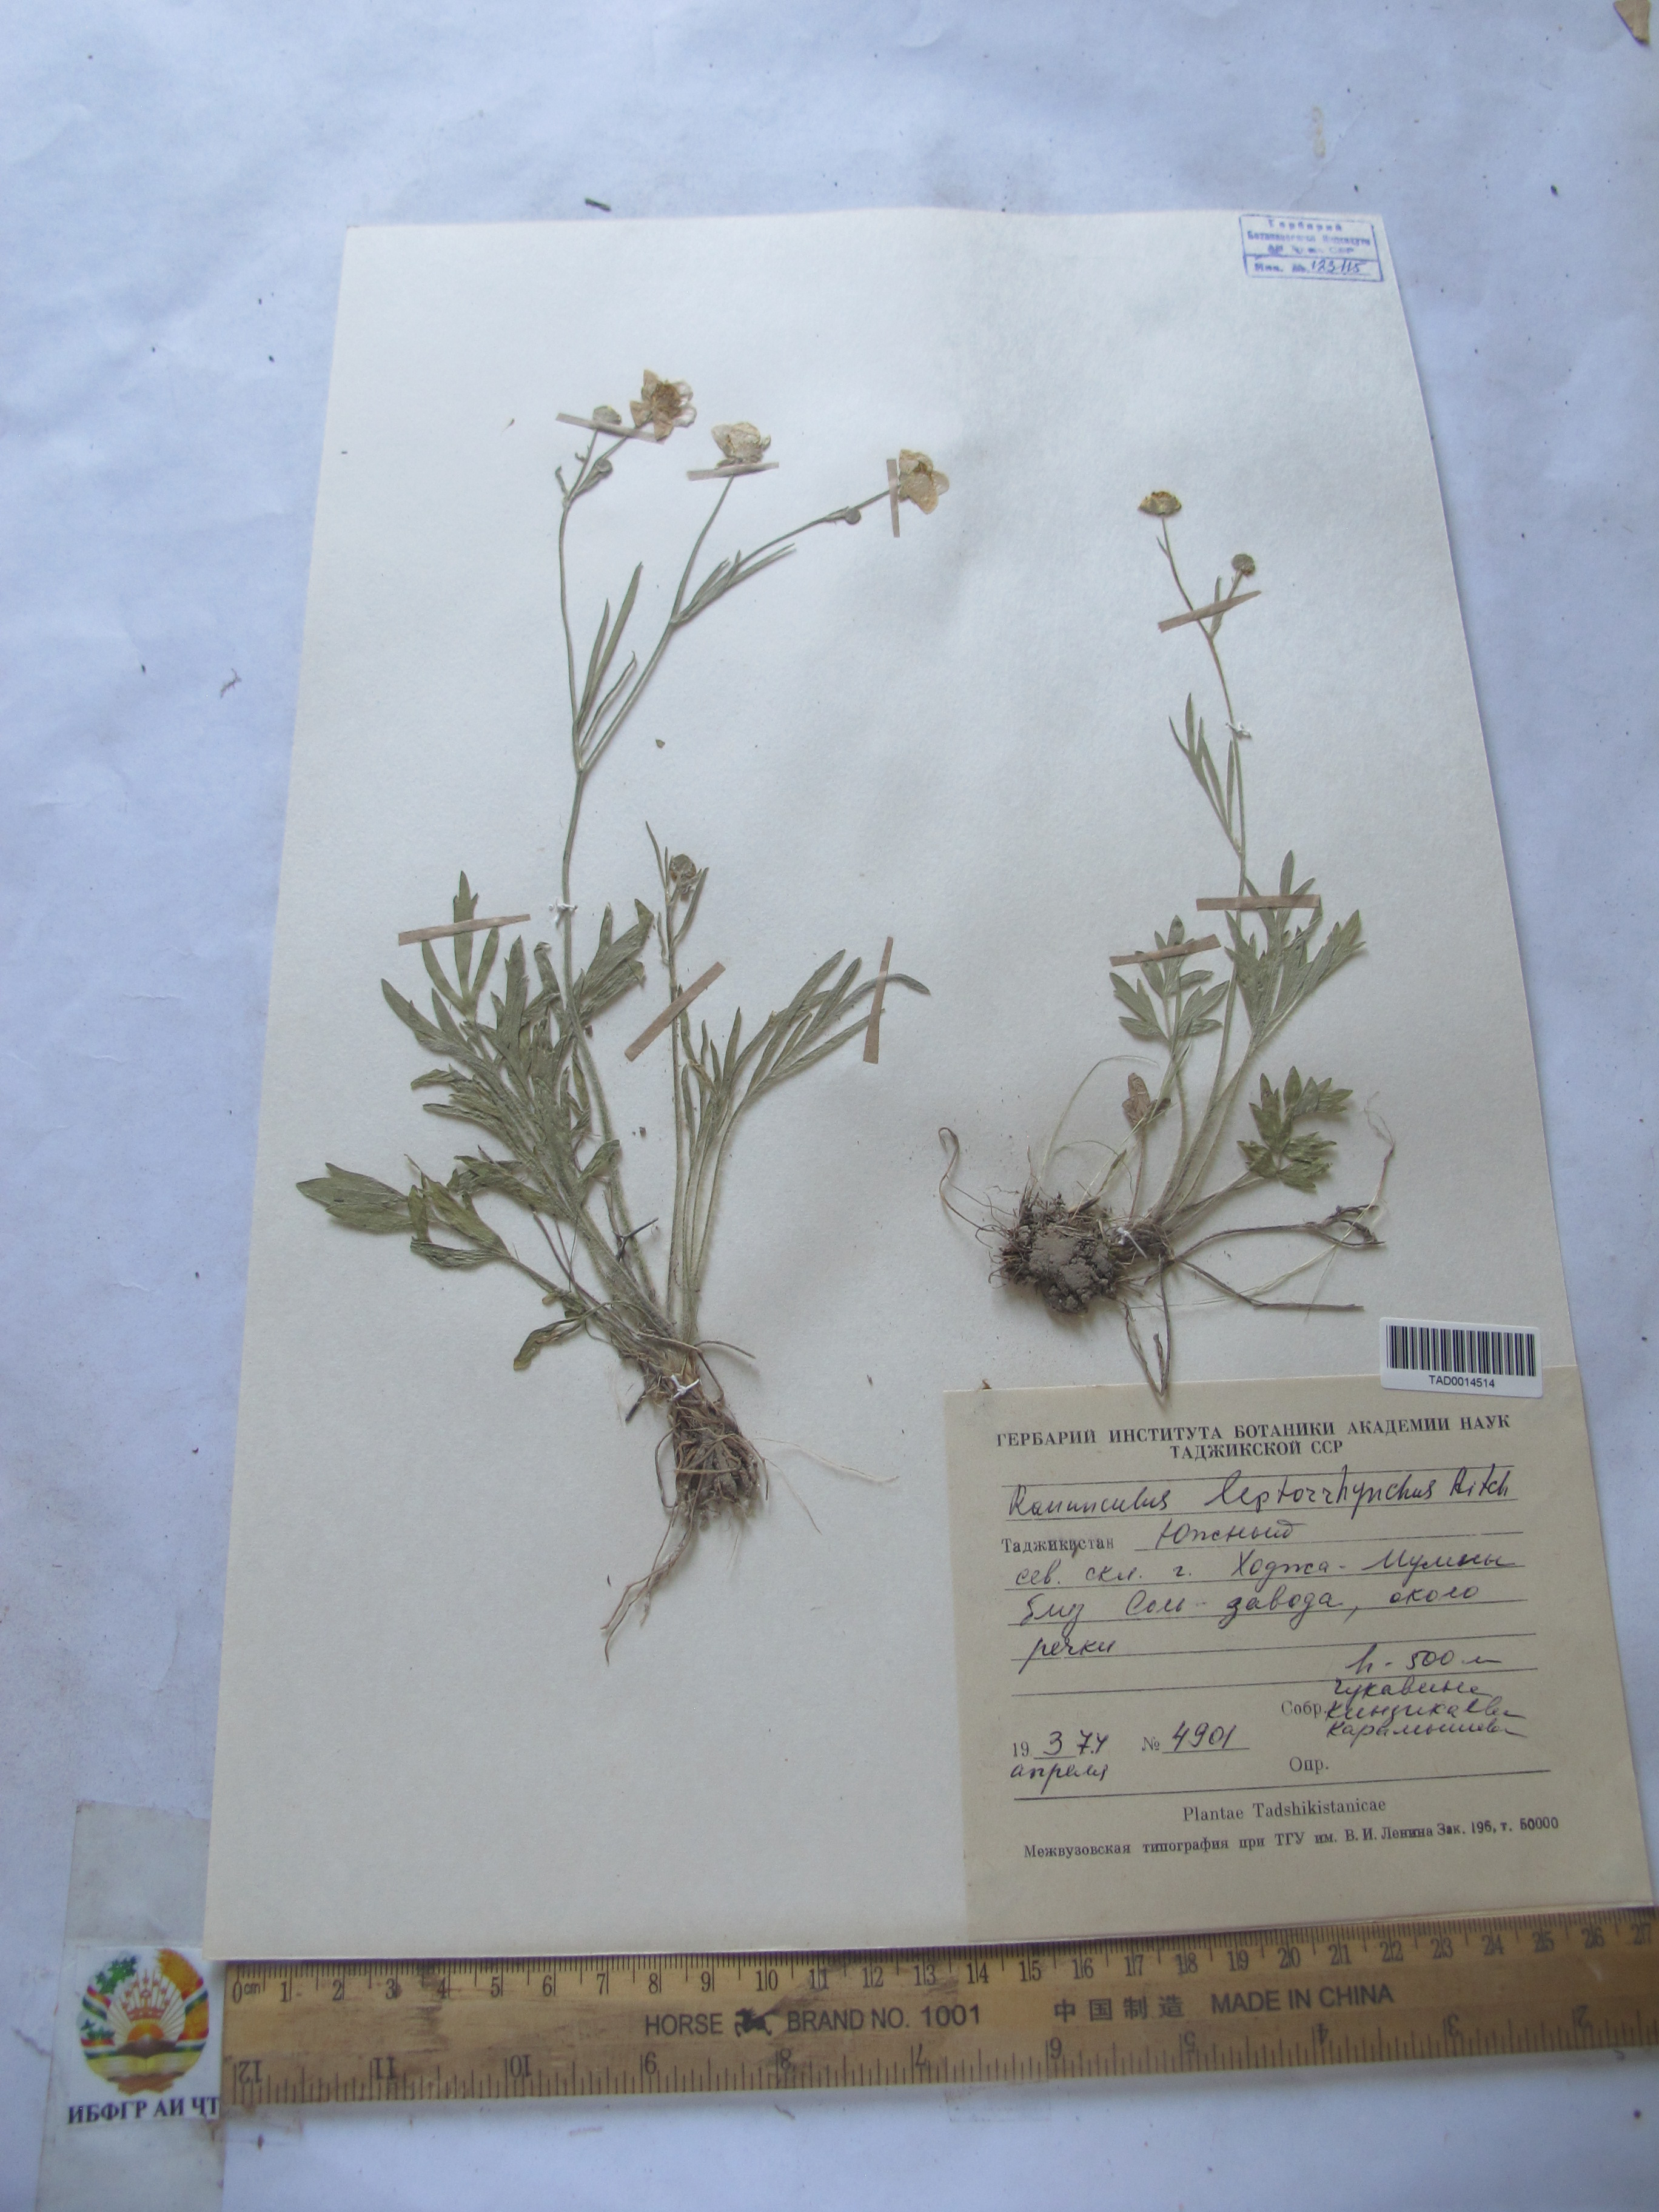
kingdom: Plantae
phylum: Tracheophyta
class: Magnoliopsida
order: Ranunculales
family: Ranunculaceae
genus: Ranunculus
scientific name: Ranunculus leptorrhynchus
